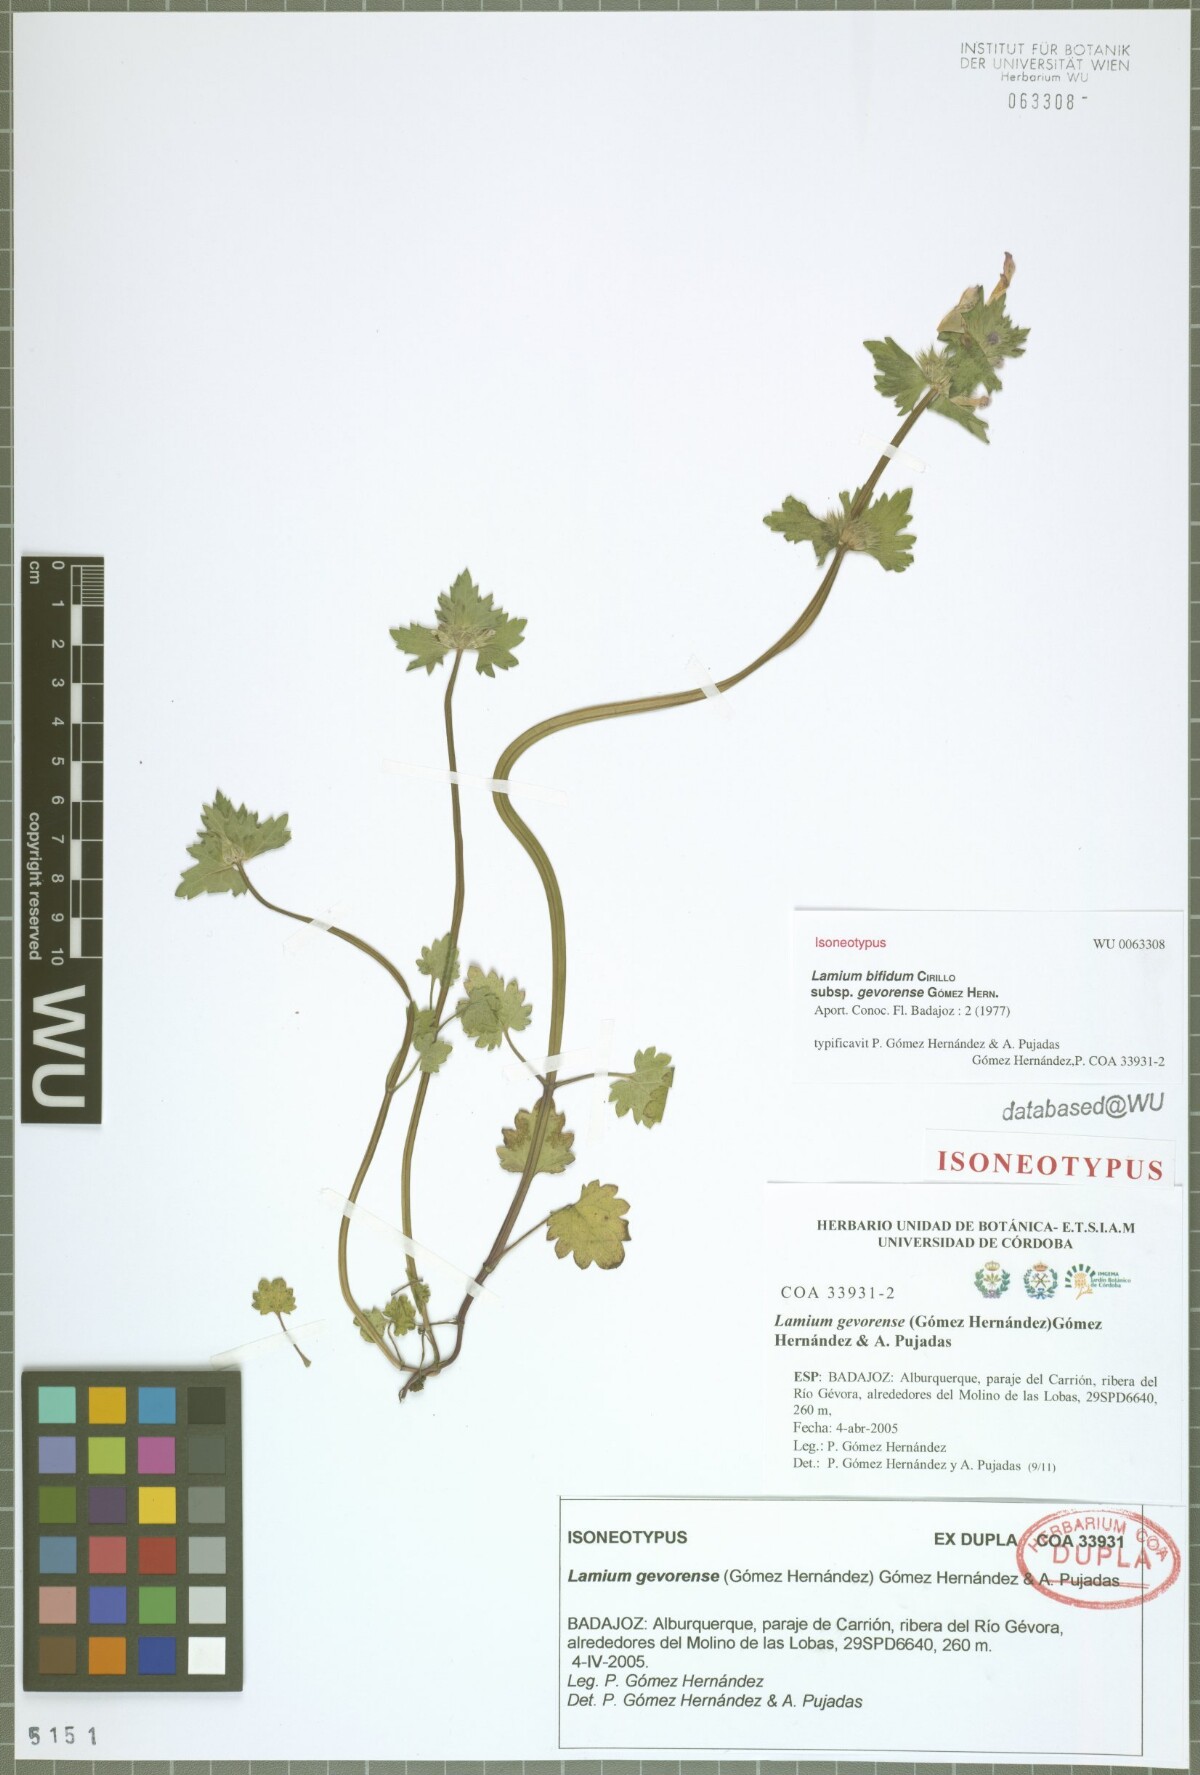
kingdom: Plantae
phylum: Tracheophyta
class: Magnoliopsida
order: Lamiales
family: Lamiaceae
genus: Lamium
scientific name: Lamium gevorense
